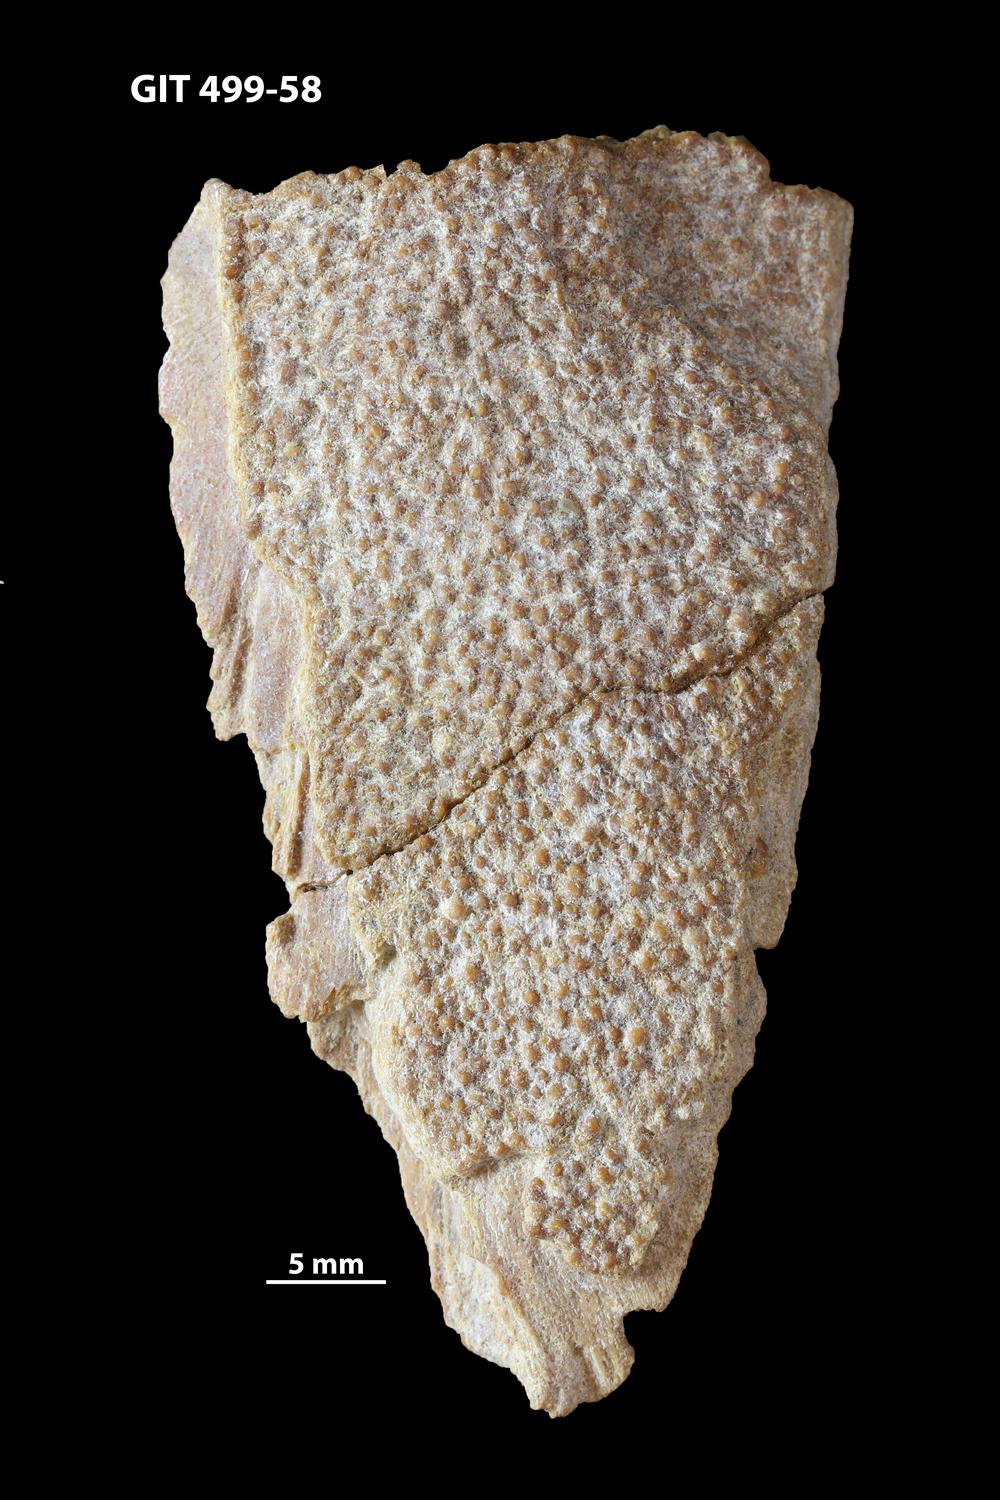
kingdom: Animalia
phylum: Chordata
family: Holoptychiidae
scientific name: Holoptychiidae
